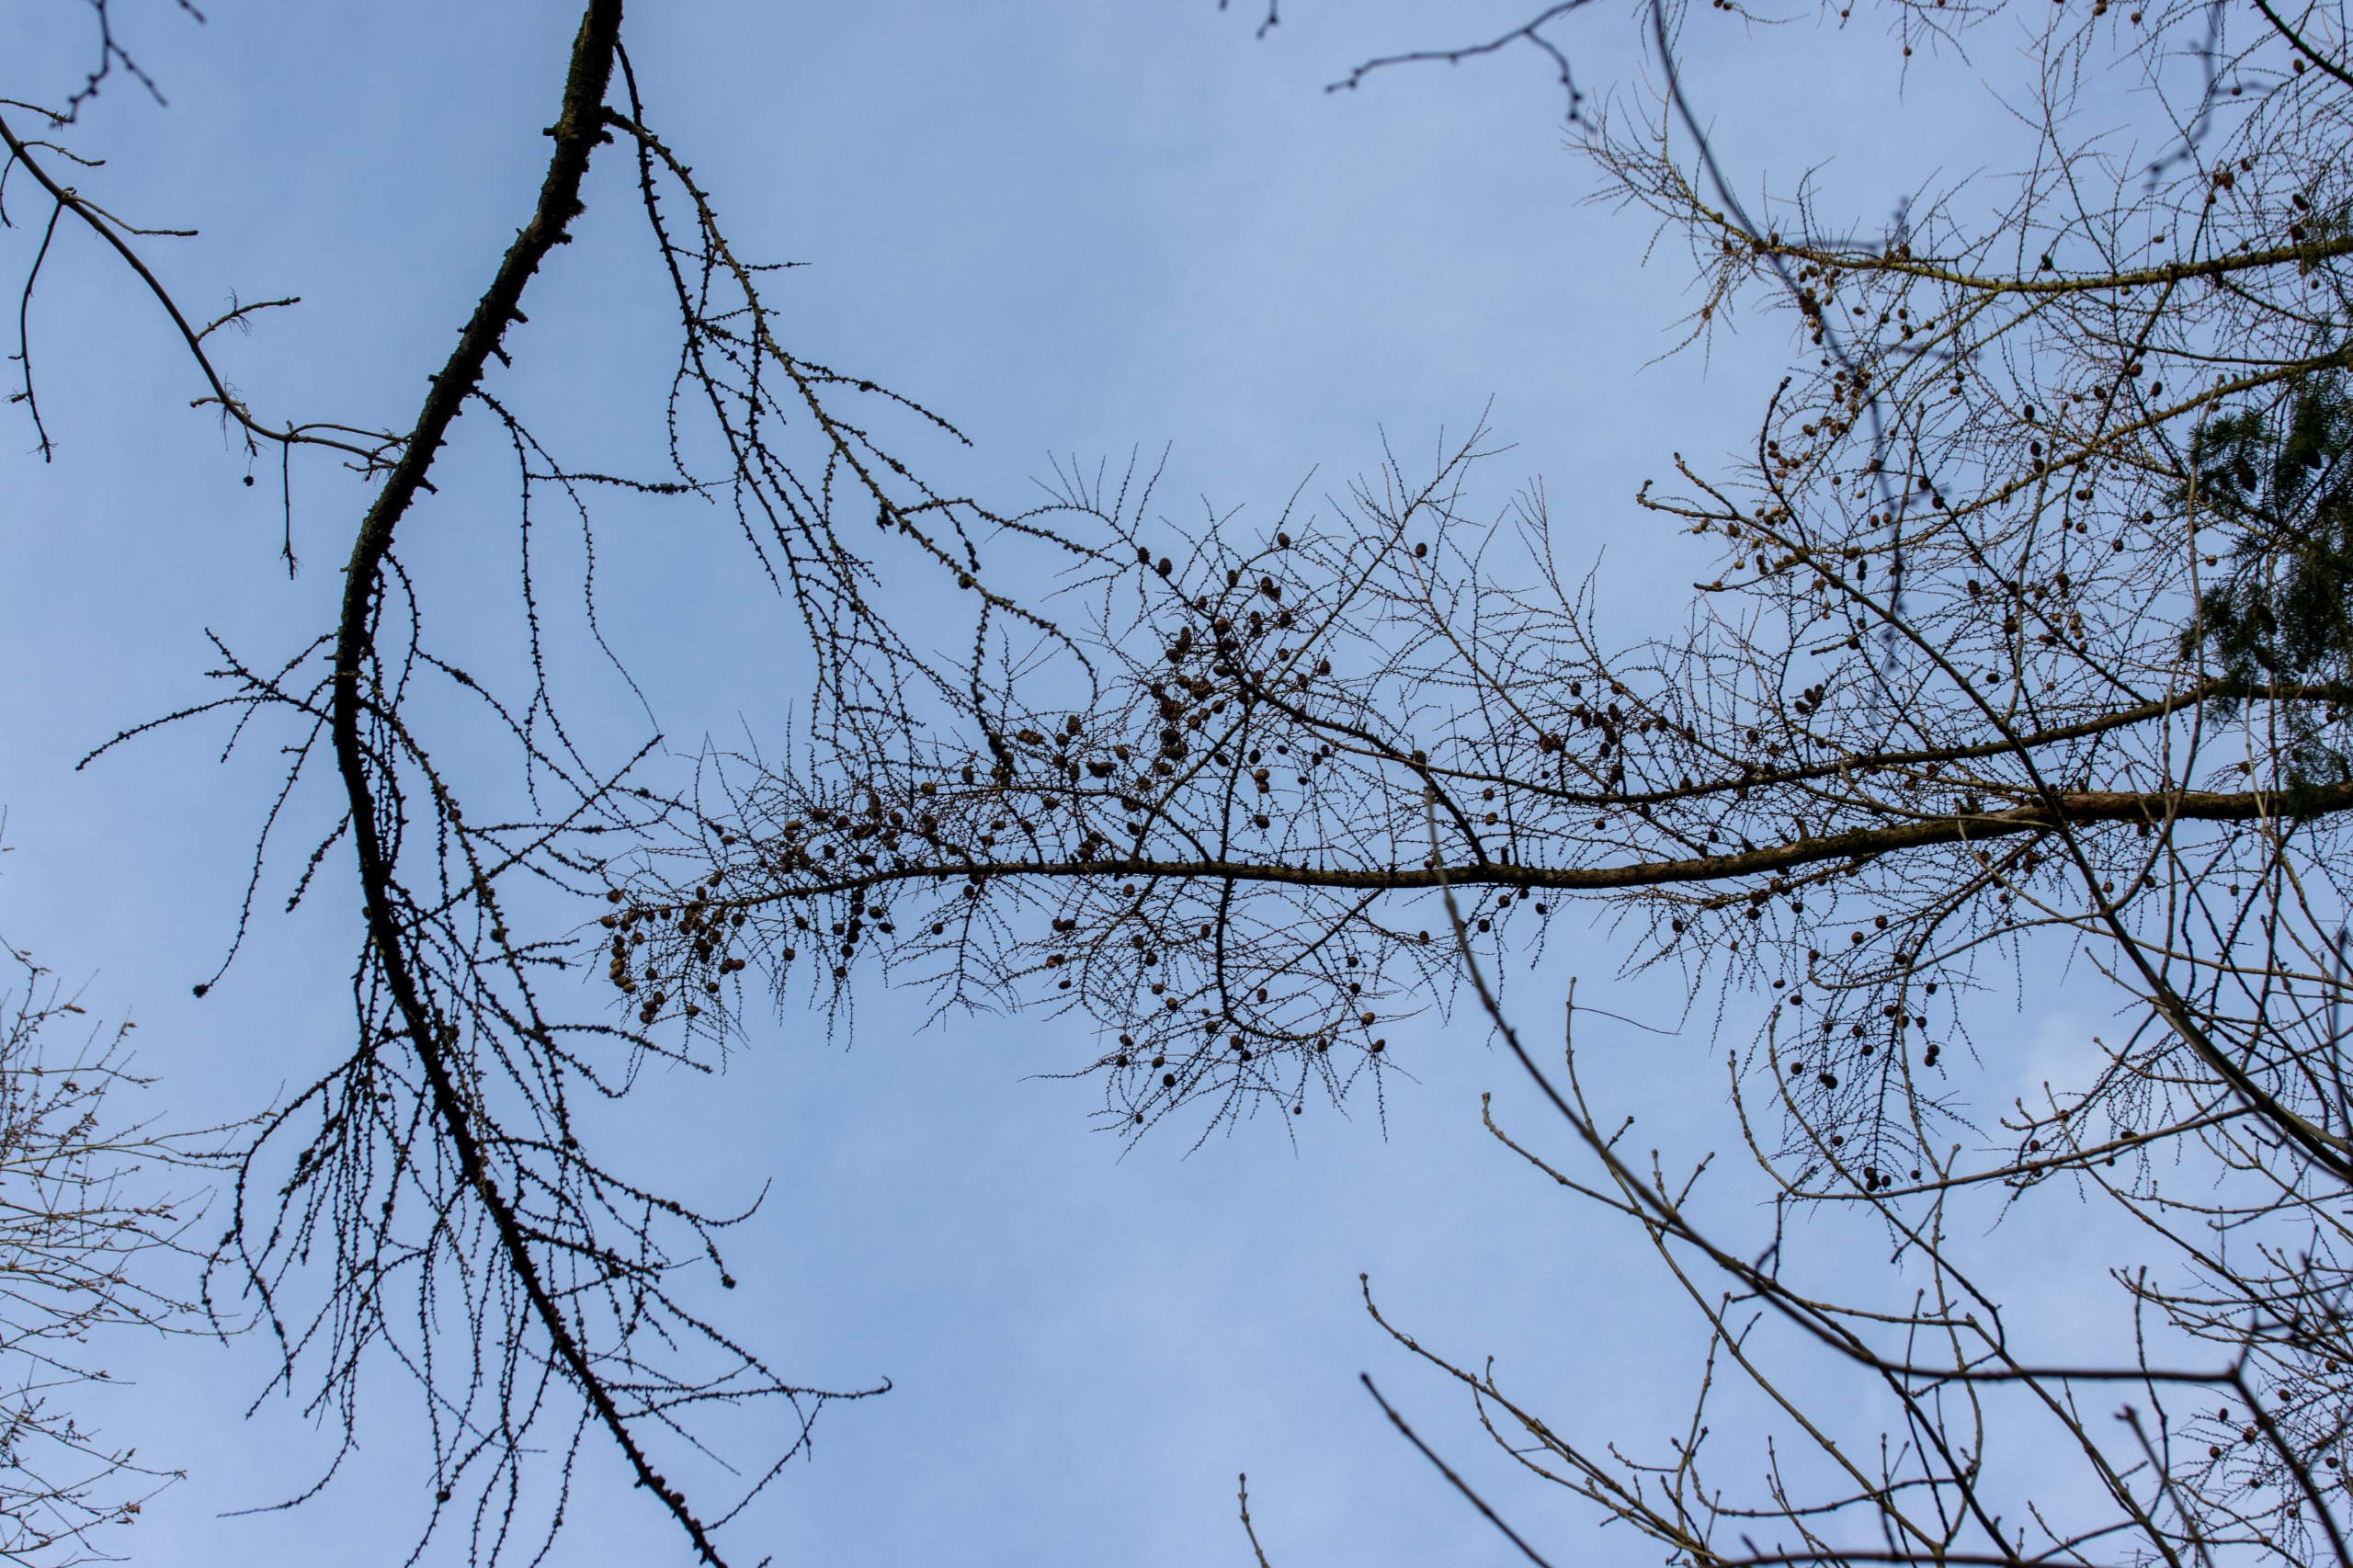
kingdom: Plantae
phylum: Tracheophyta
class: Pinopsida
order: Pinales
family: Pinaceae
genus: Larix
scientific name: Larix decidua
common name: Europæisk lærk
